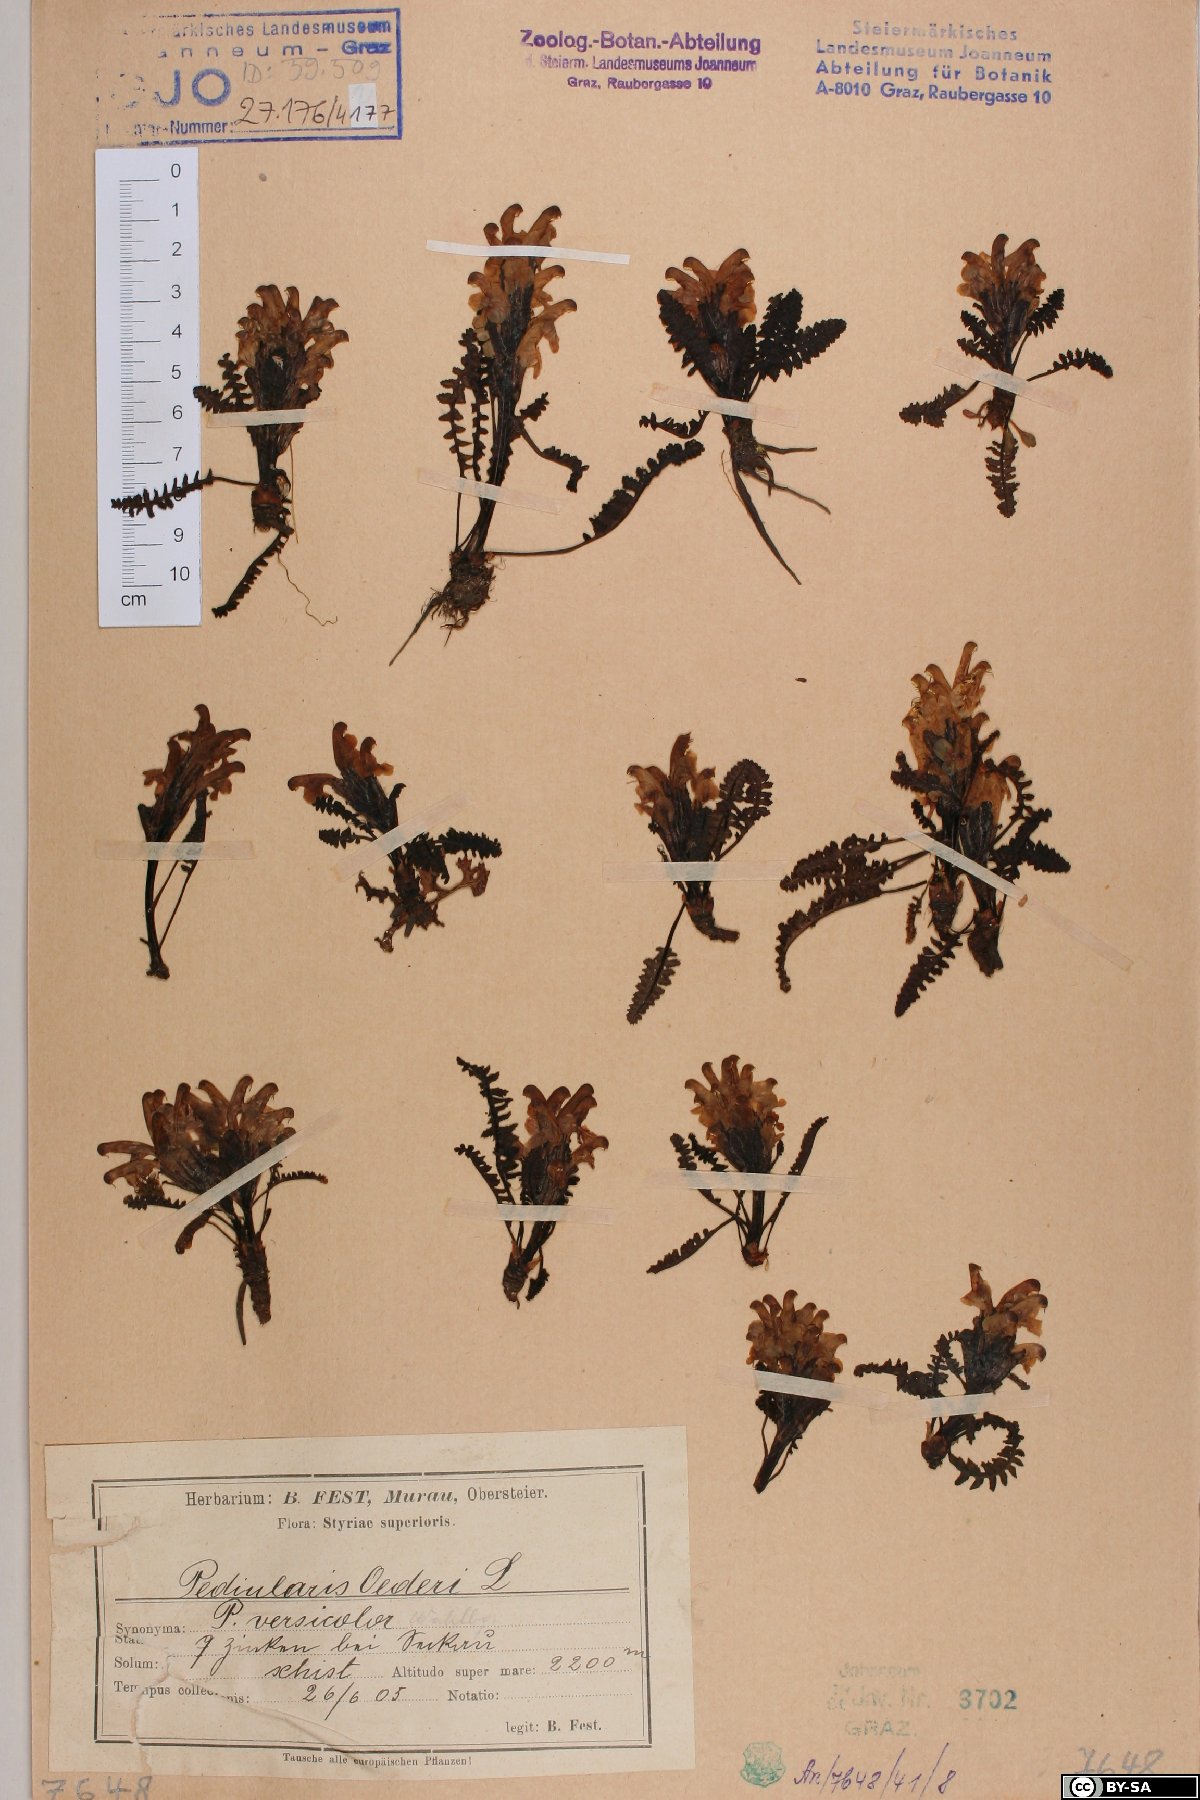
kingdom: Plantae
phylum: Tracheophyta
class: Magnoliopsida
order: Lamiales
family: Orobanchaceae
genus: Pedicularis
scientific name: Pedicularis oederi
